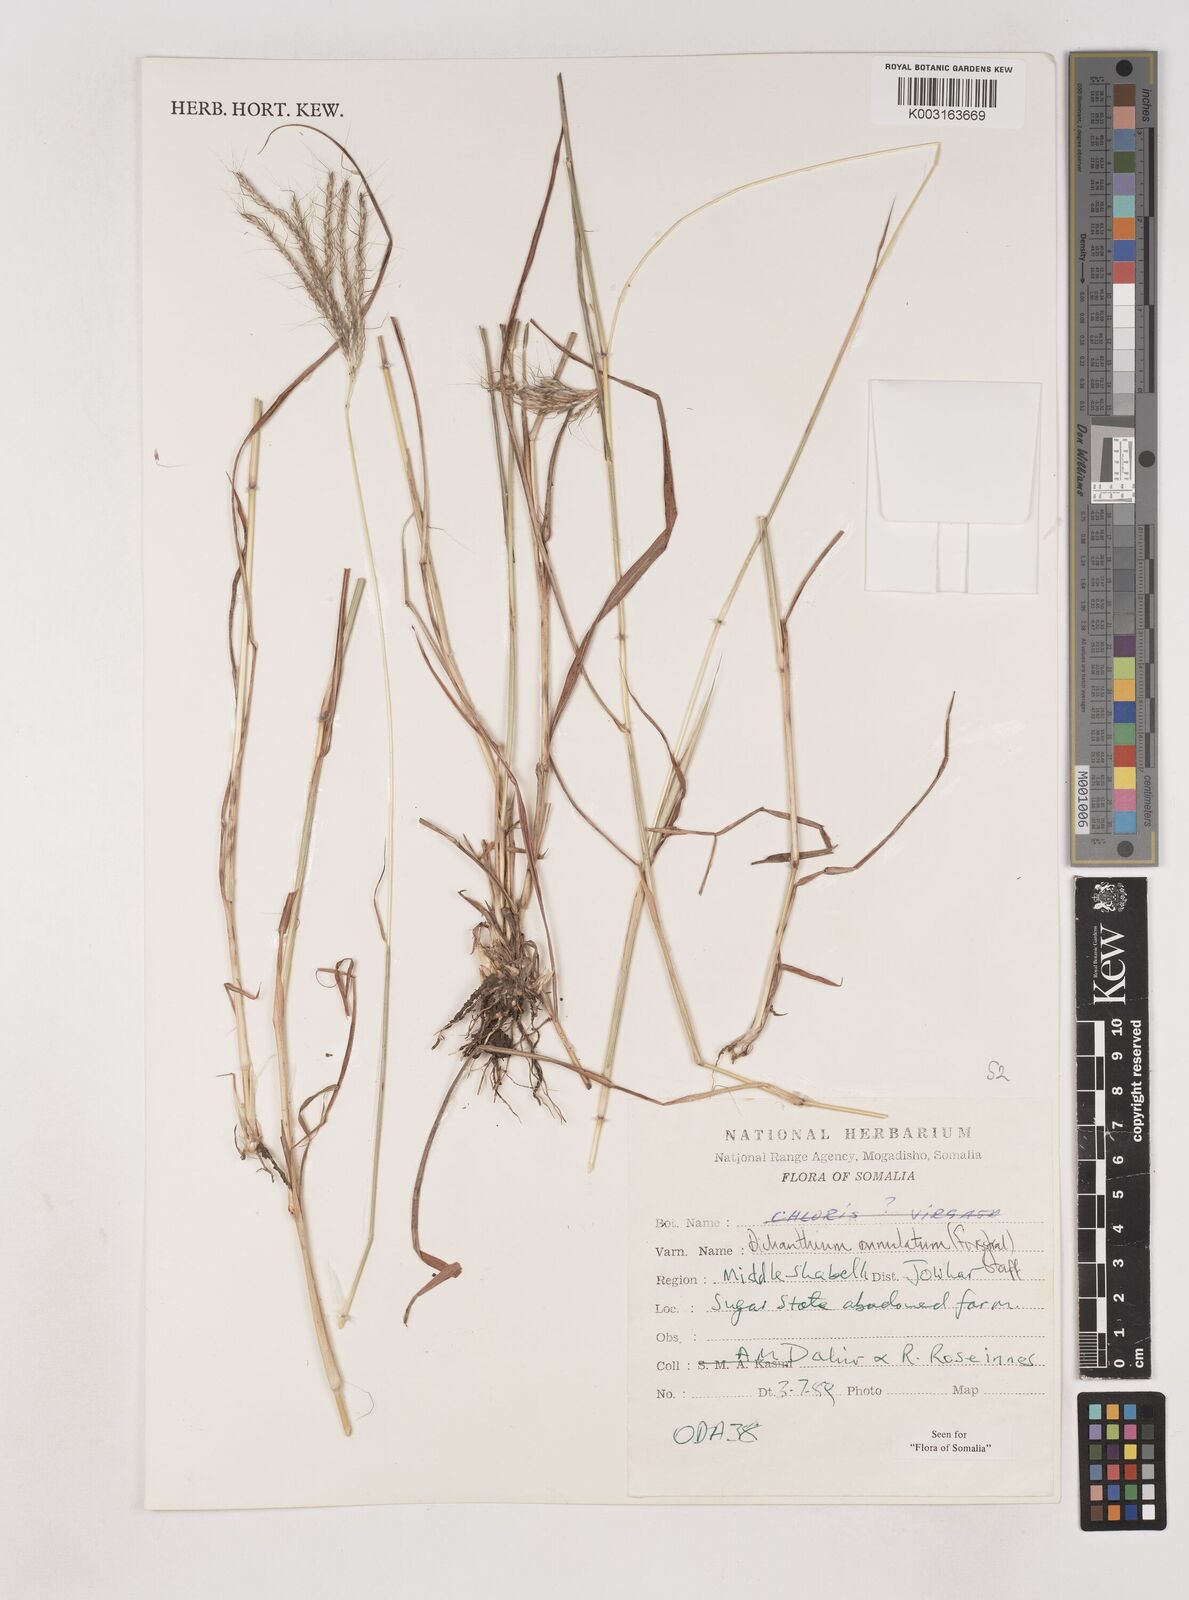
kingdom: Plantae
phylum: Tracheophyta
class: Liliopsida
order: Poales
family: Poaceae
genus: Dichanthium
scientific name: Dichanthium annulatum
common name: Kleberg's bluestem
